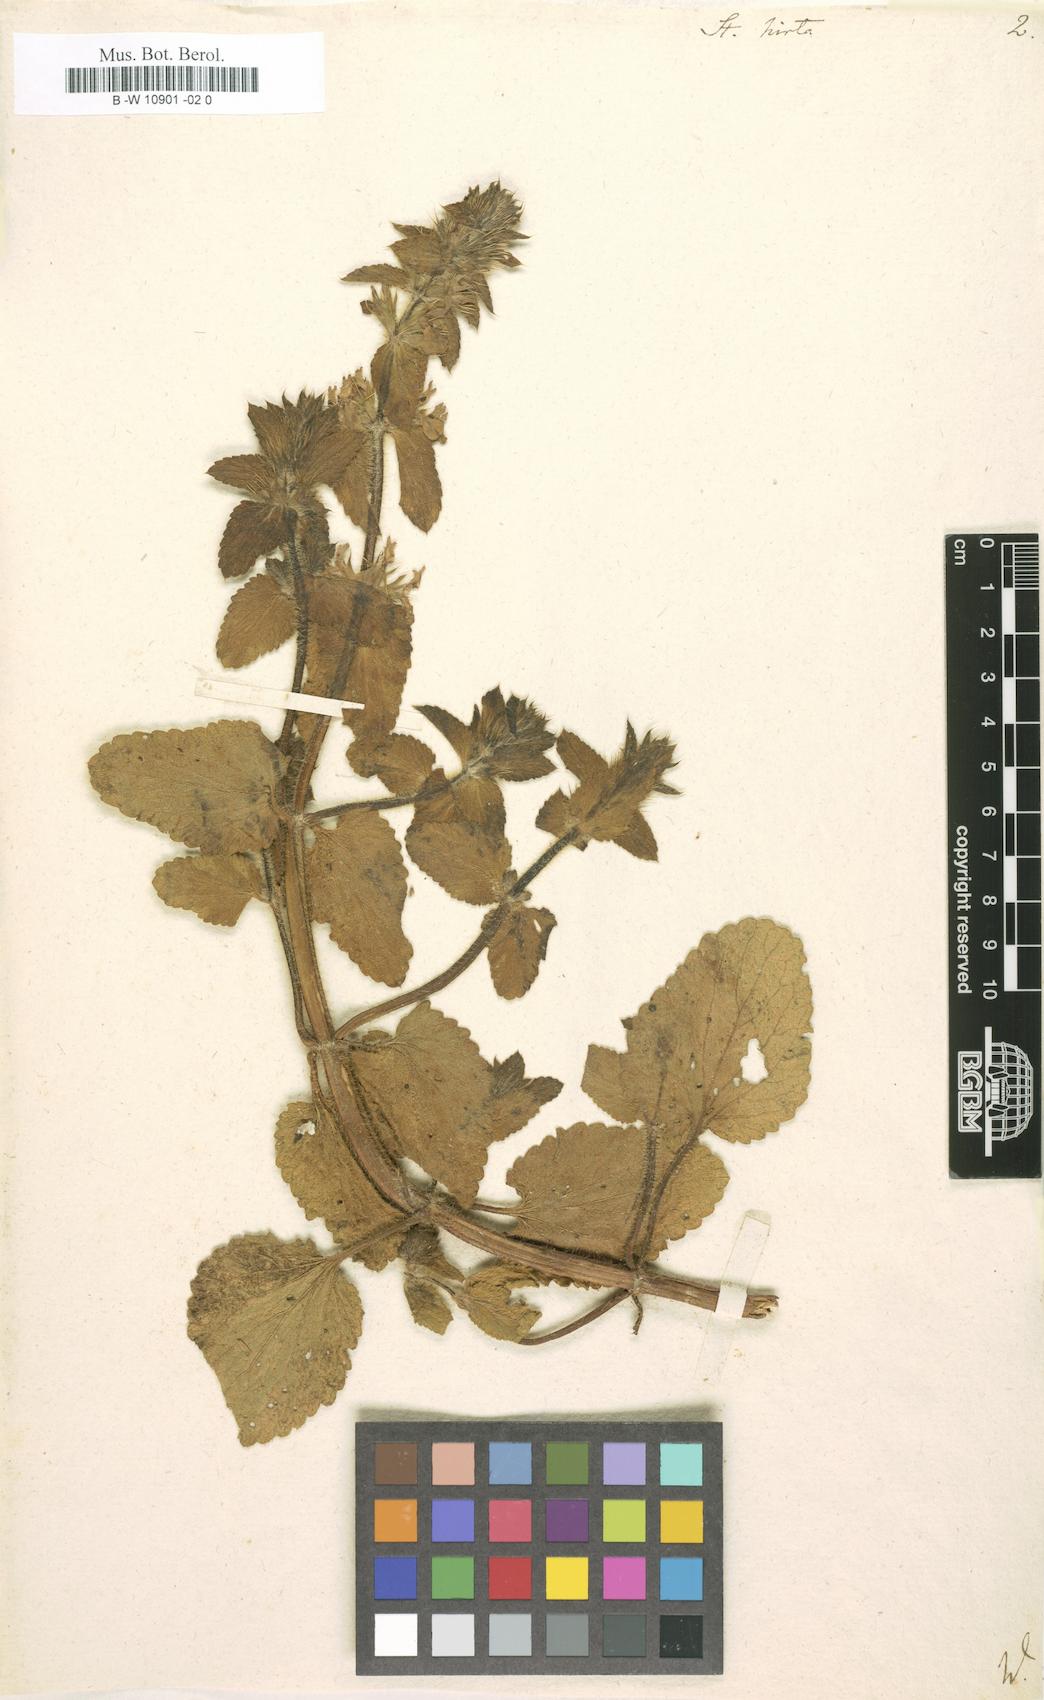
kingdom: Plantae
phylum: Tracheophyta
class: Magnoliopsida
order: Lamiales
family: Lamiaceae
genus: Stachys
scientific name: Stachys
